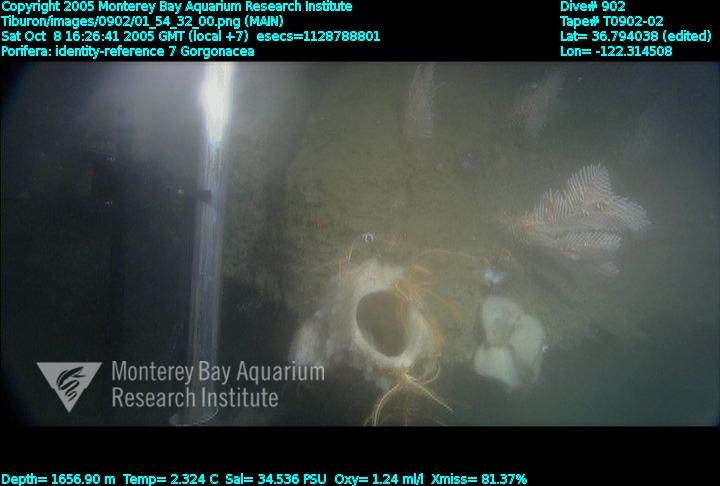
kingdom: Animalia
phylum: Porifera
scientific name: Porifera
